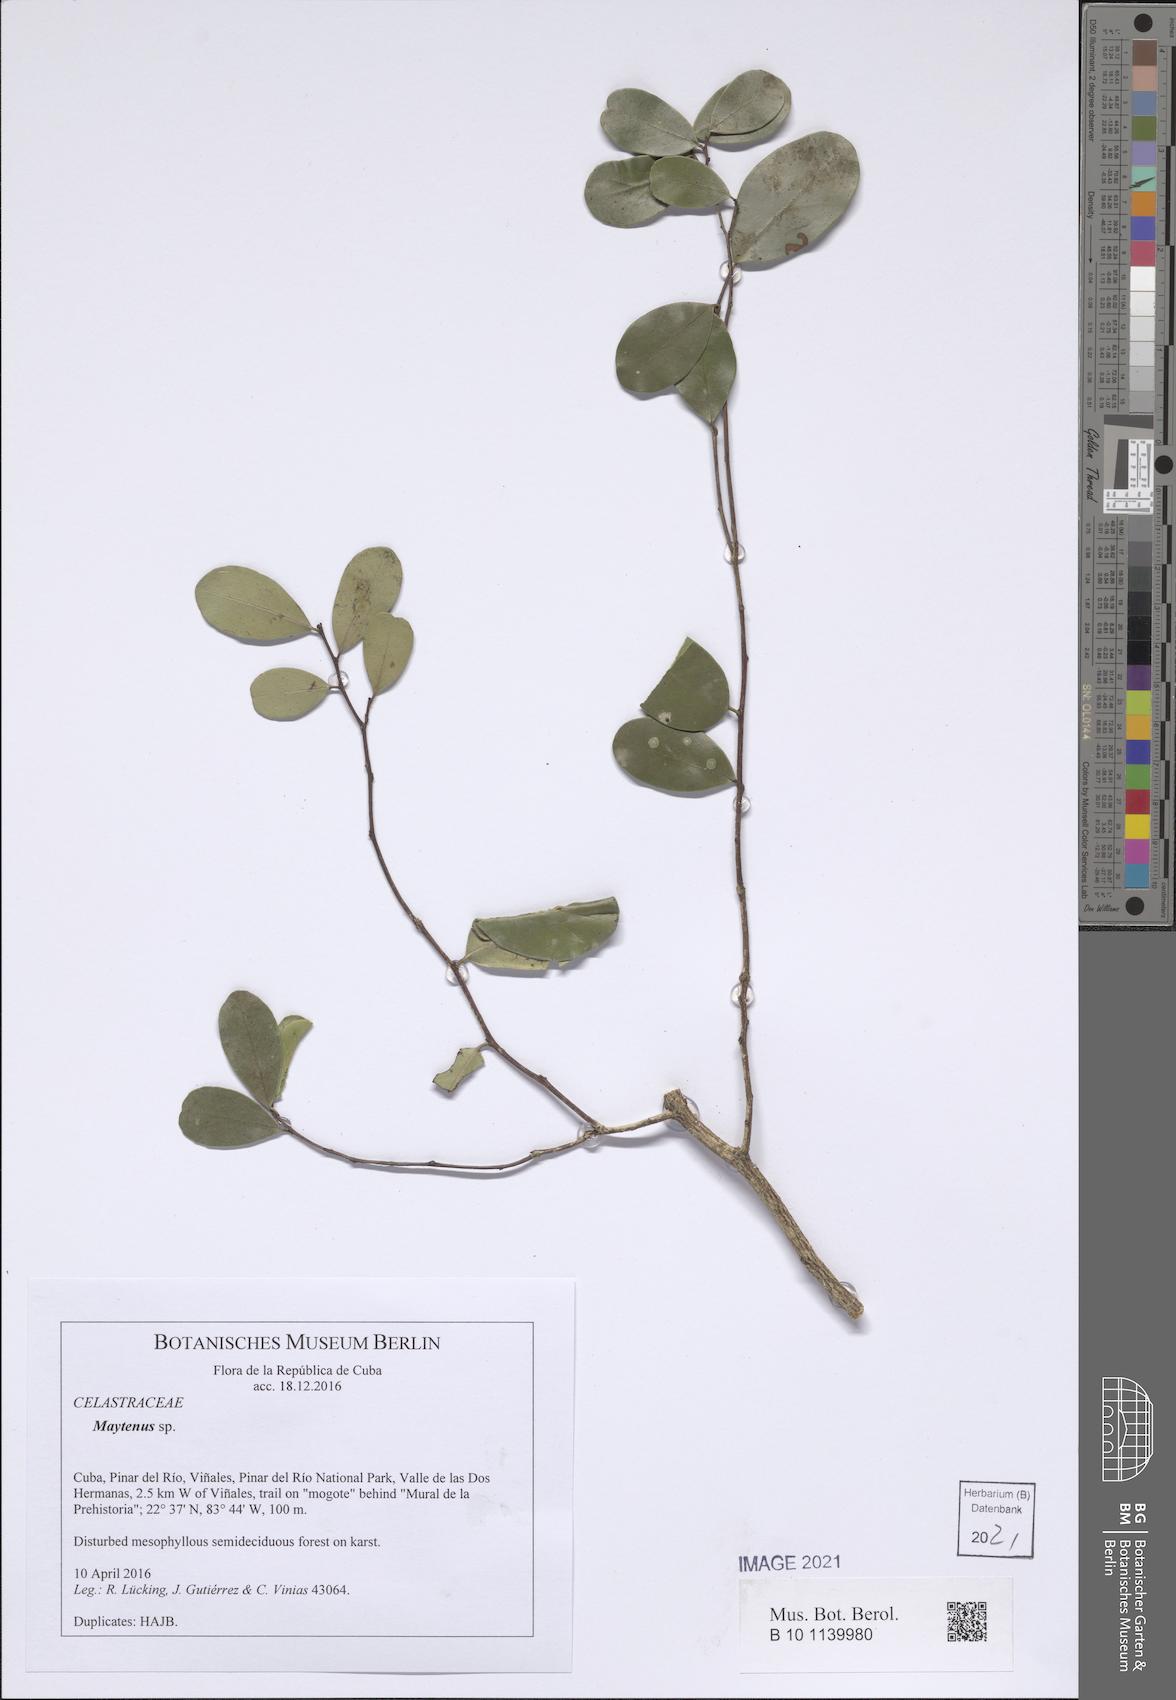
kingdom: Plantae
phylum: Tracheophyta
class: Magnoliopsida
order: Celastrales
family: Celastraceae
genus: Maytenus
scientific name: Maytenus
